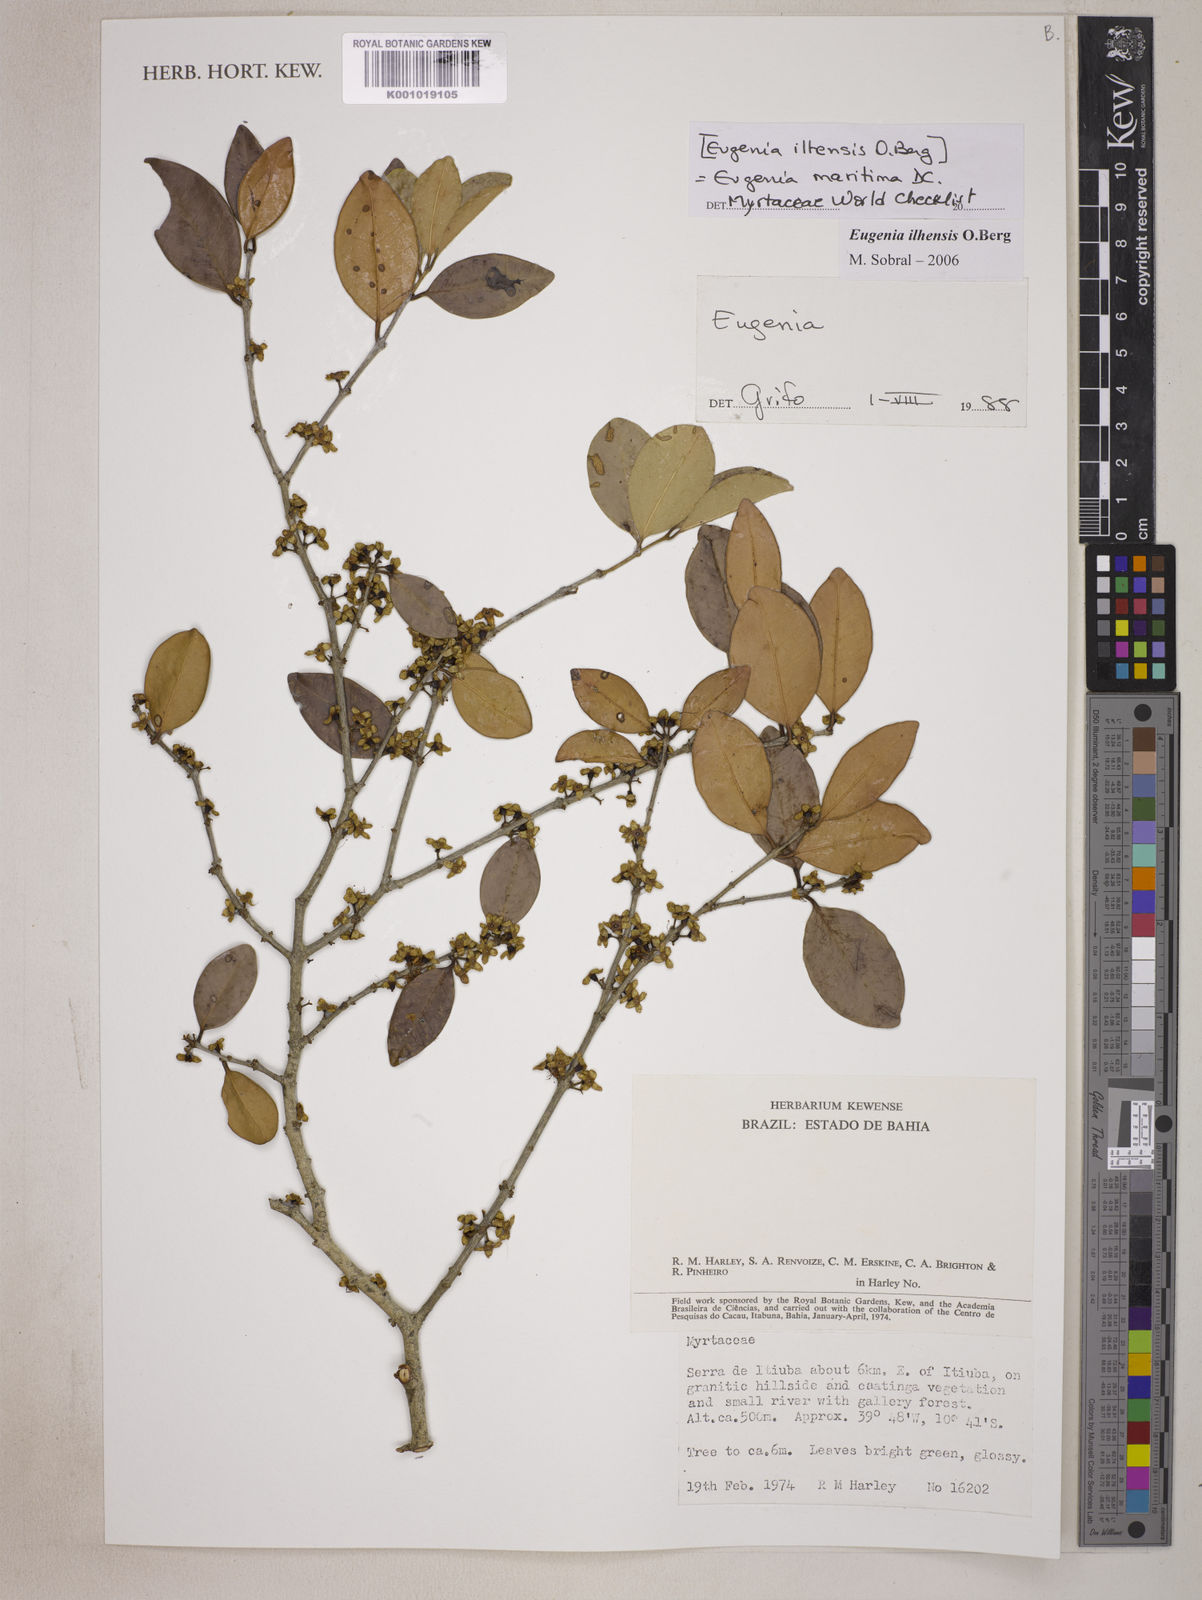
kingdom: Plantae
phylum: Tracheophyta
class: Magnoliopsida
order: Myrtales
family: Myrtaceae
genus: Eugenia
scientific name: Eugenia maritima
